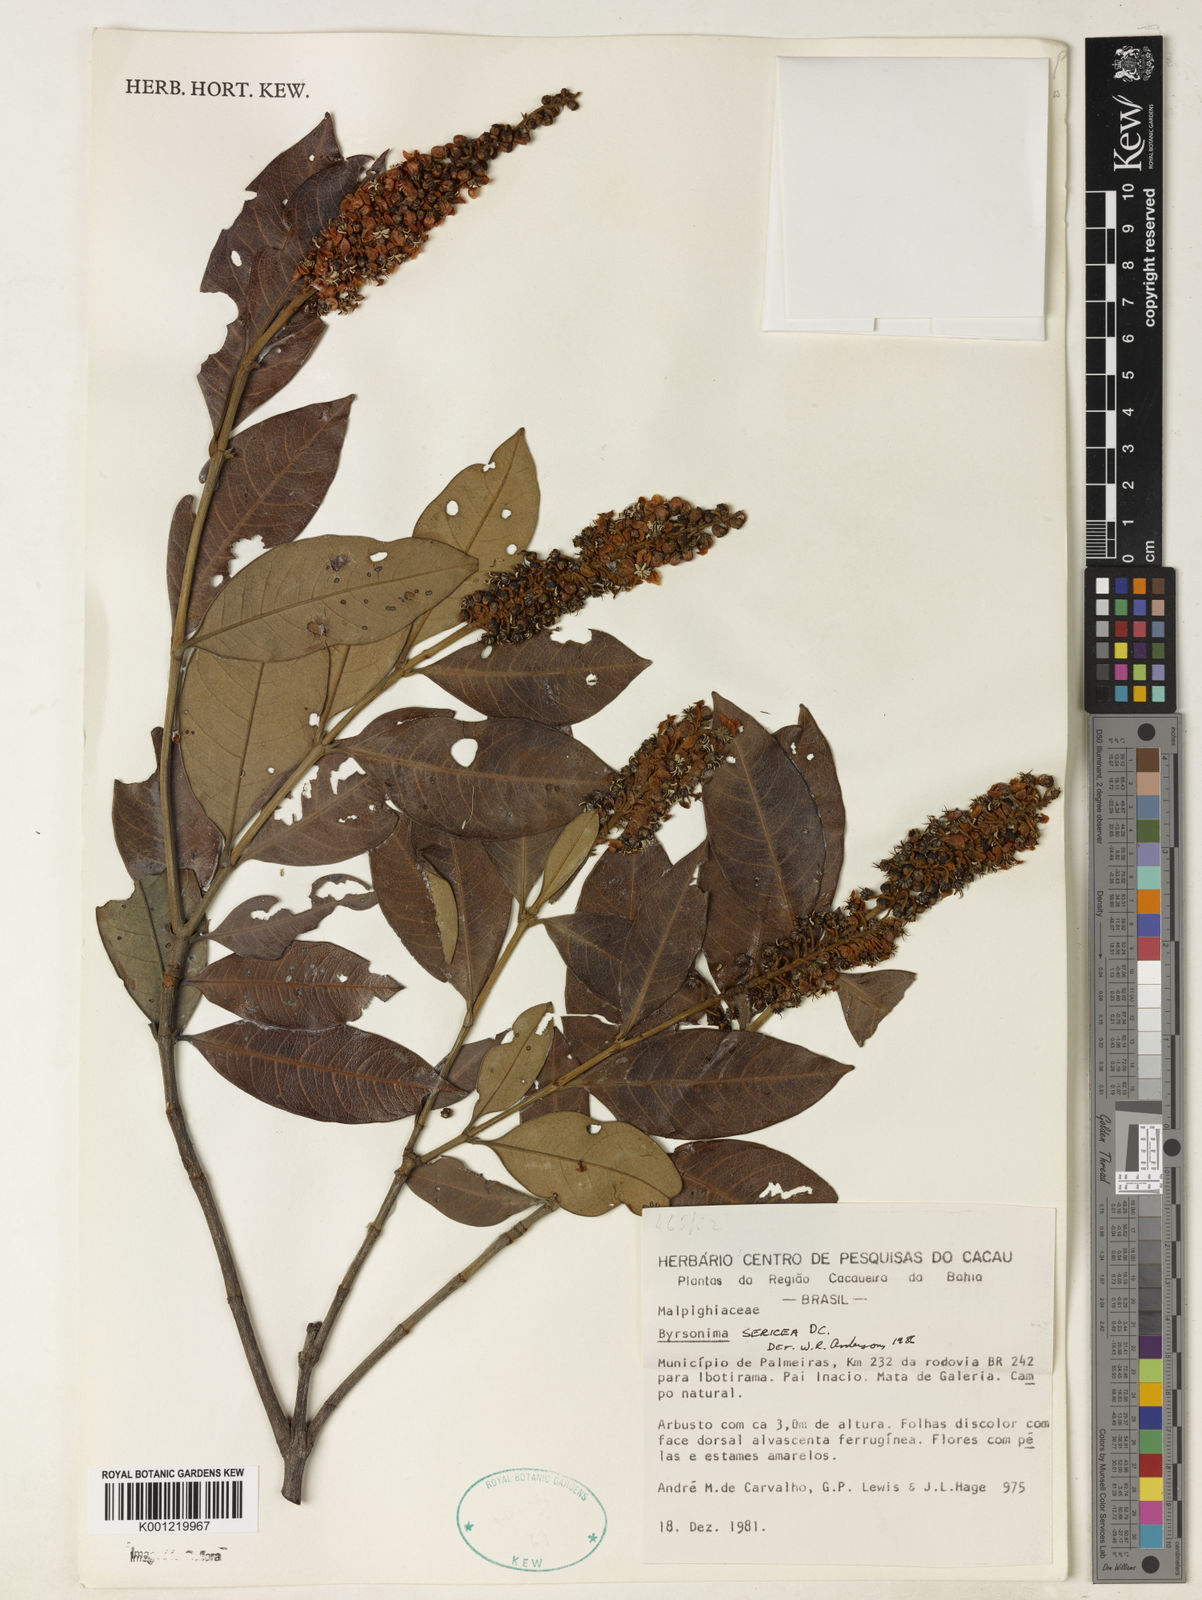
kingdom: Plantae
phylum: Tracheophyta
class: Magnoliopsida
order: Malpighiales
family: Malpighiaceae
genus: Byrsonima
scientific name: Byrsonima sericea
